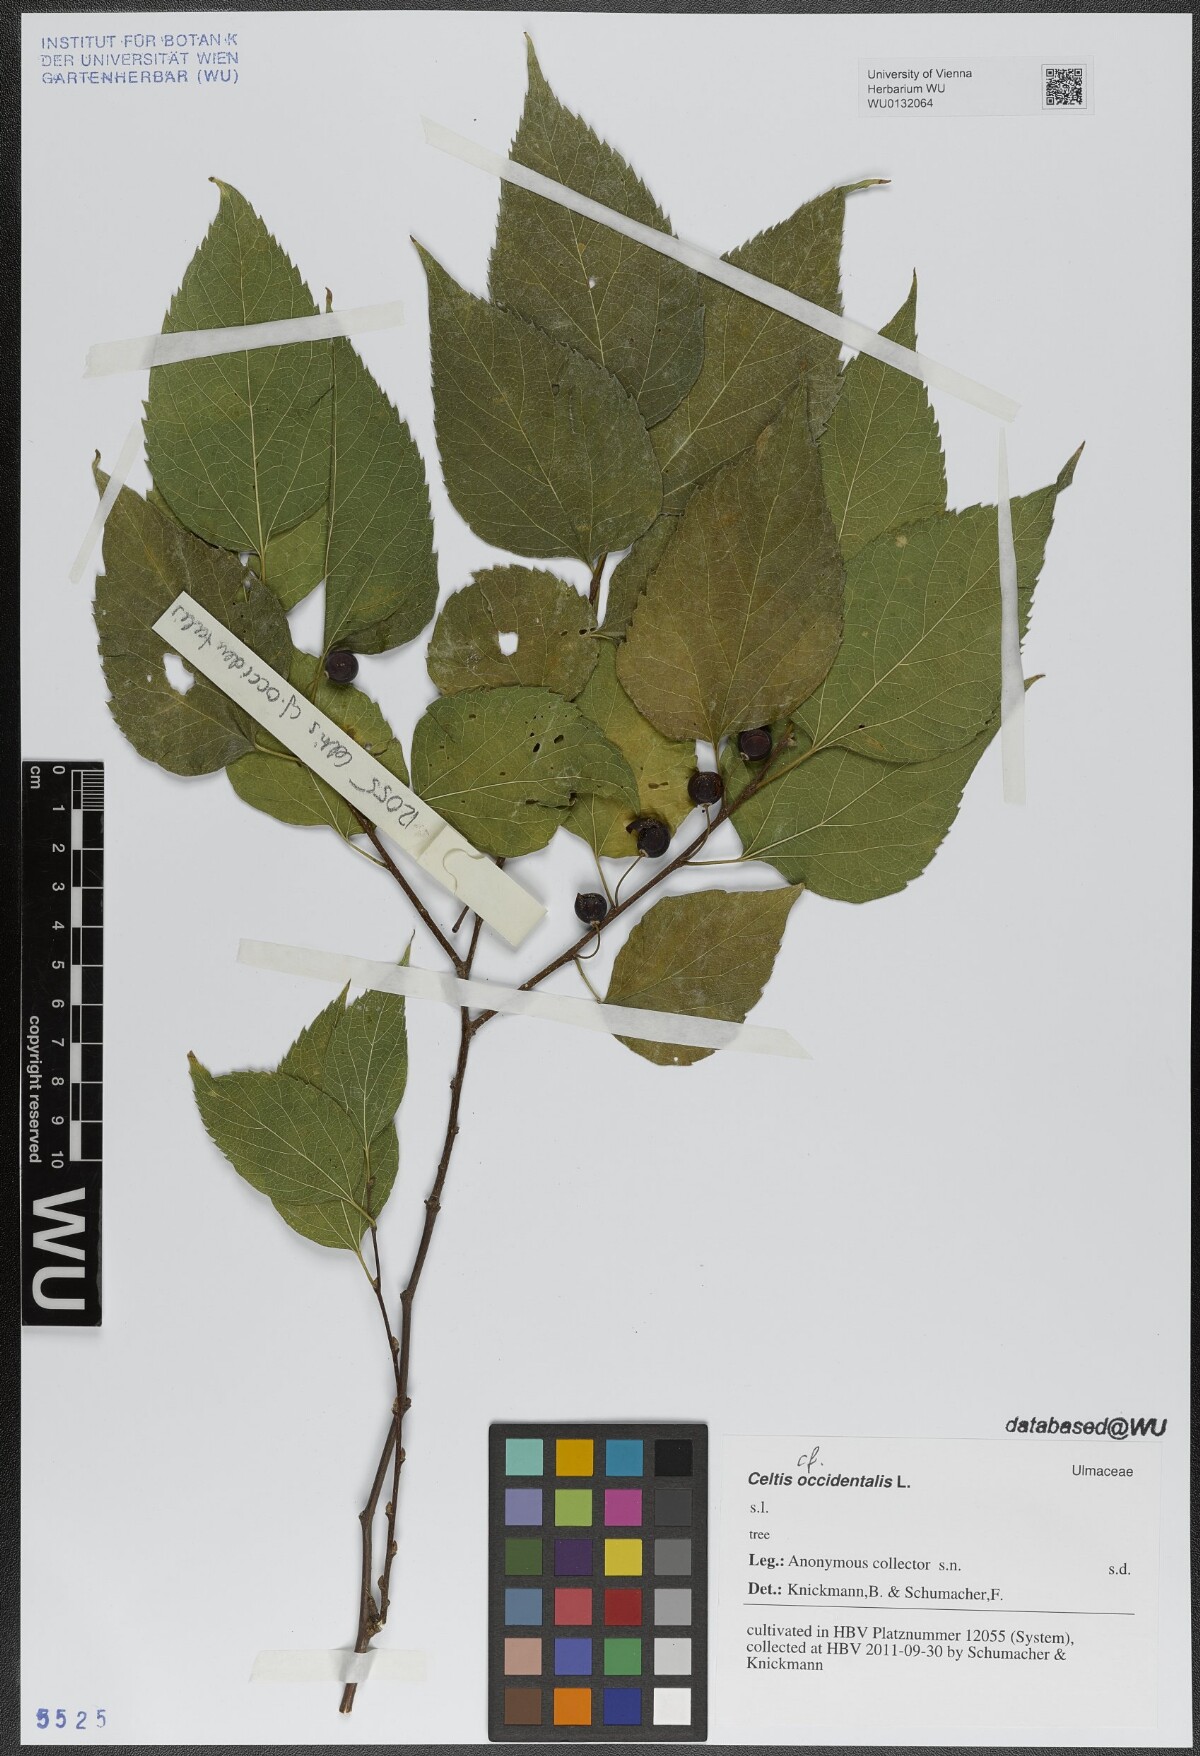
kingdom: Plantae
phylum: Tracheophyta
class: Magnoliopsida
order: Rosales
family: Cannabaceae
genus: Celtis
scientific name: Celtis occidentalis
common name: Common hackberry
